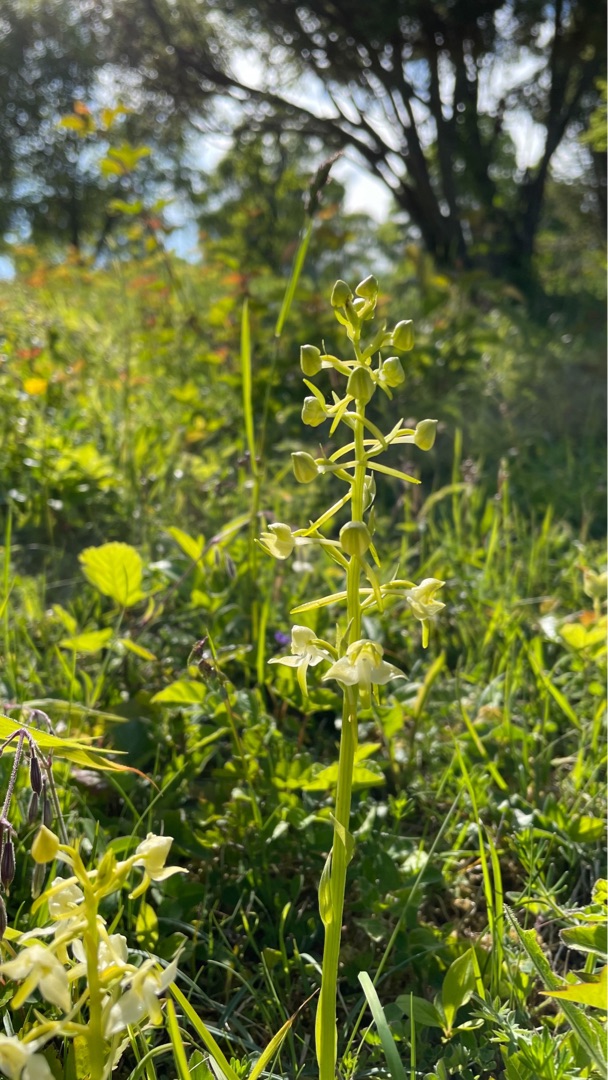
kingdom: Plantae
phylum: Tracheophyta
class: Liliopsida
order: Asparagales
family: Orchidaceae
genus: Platanthera
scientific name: Platanthera chlorantha
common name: Skov-gøgelilje
